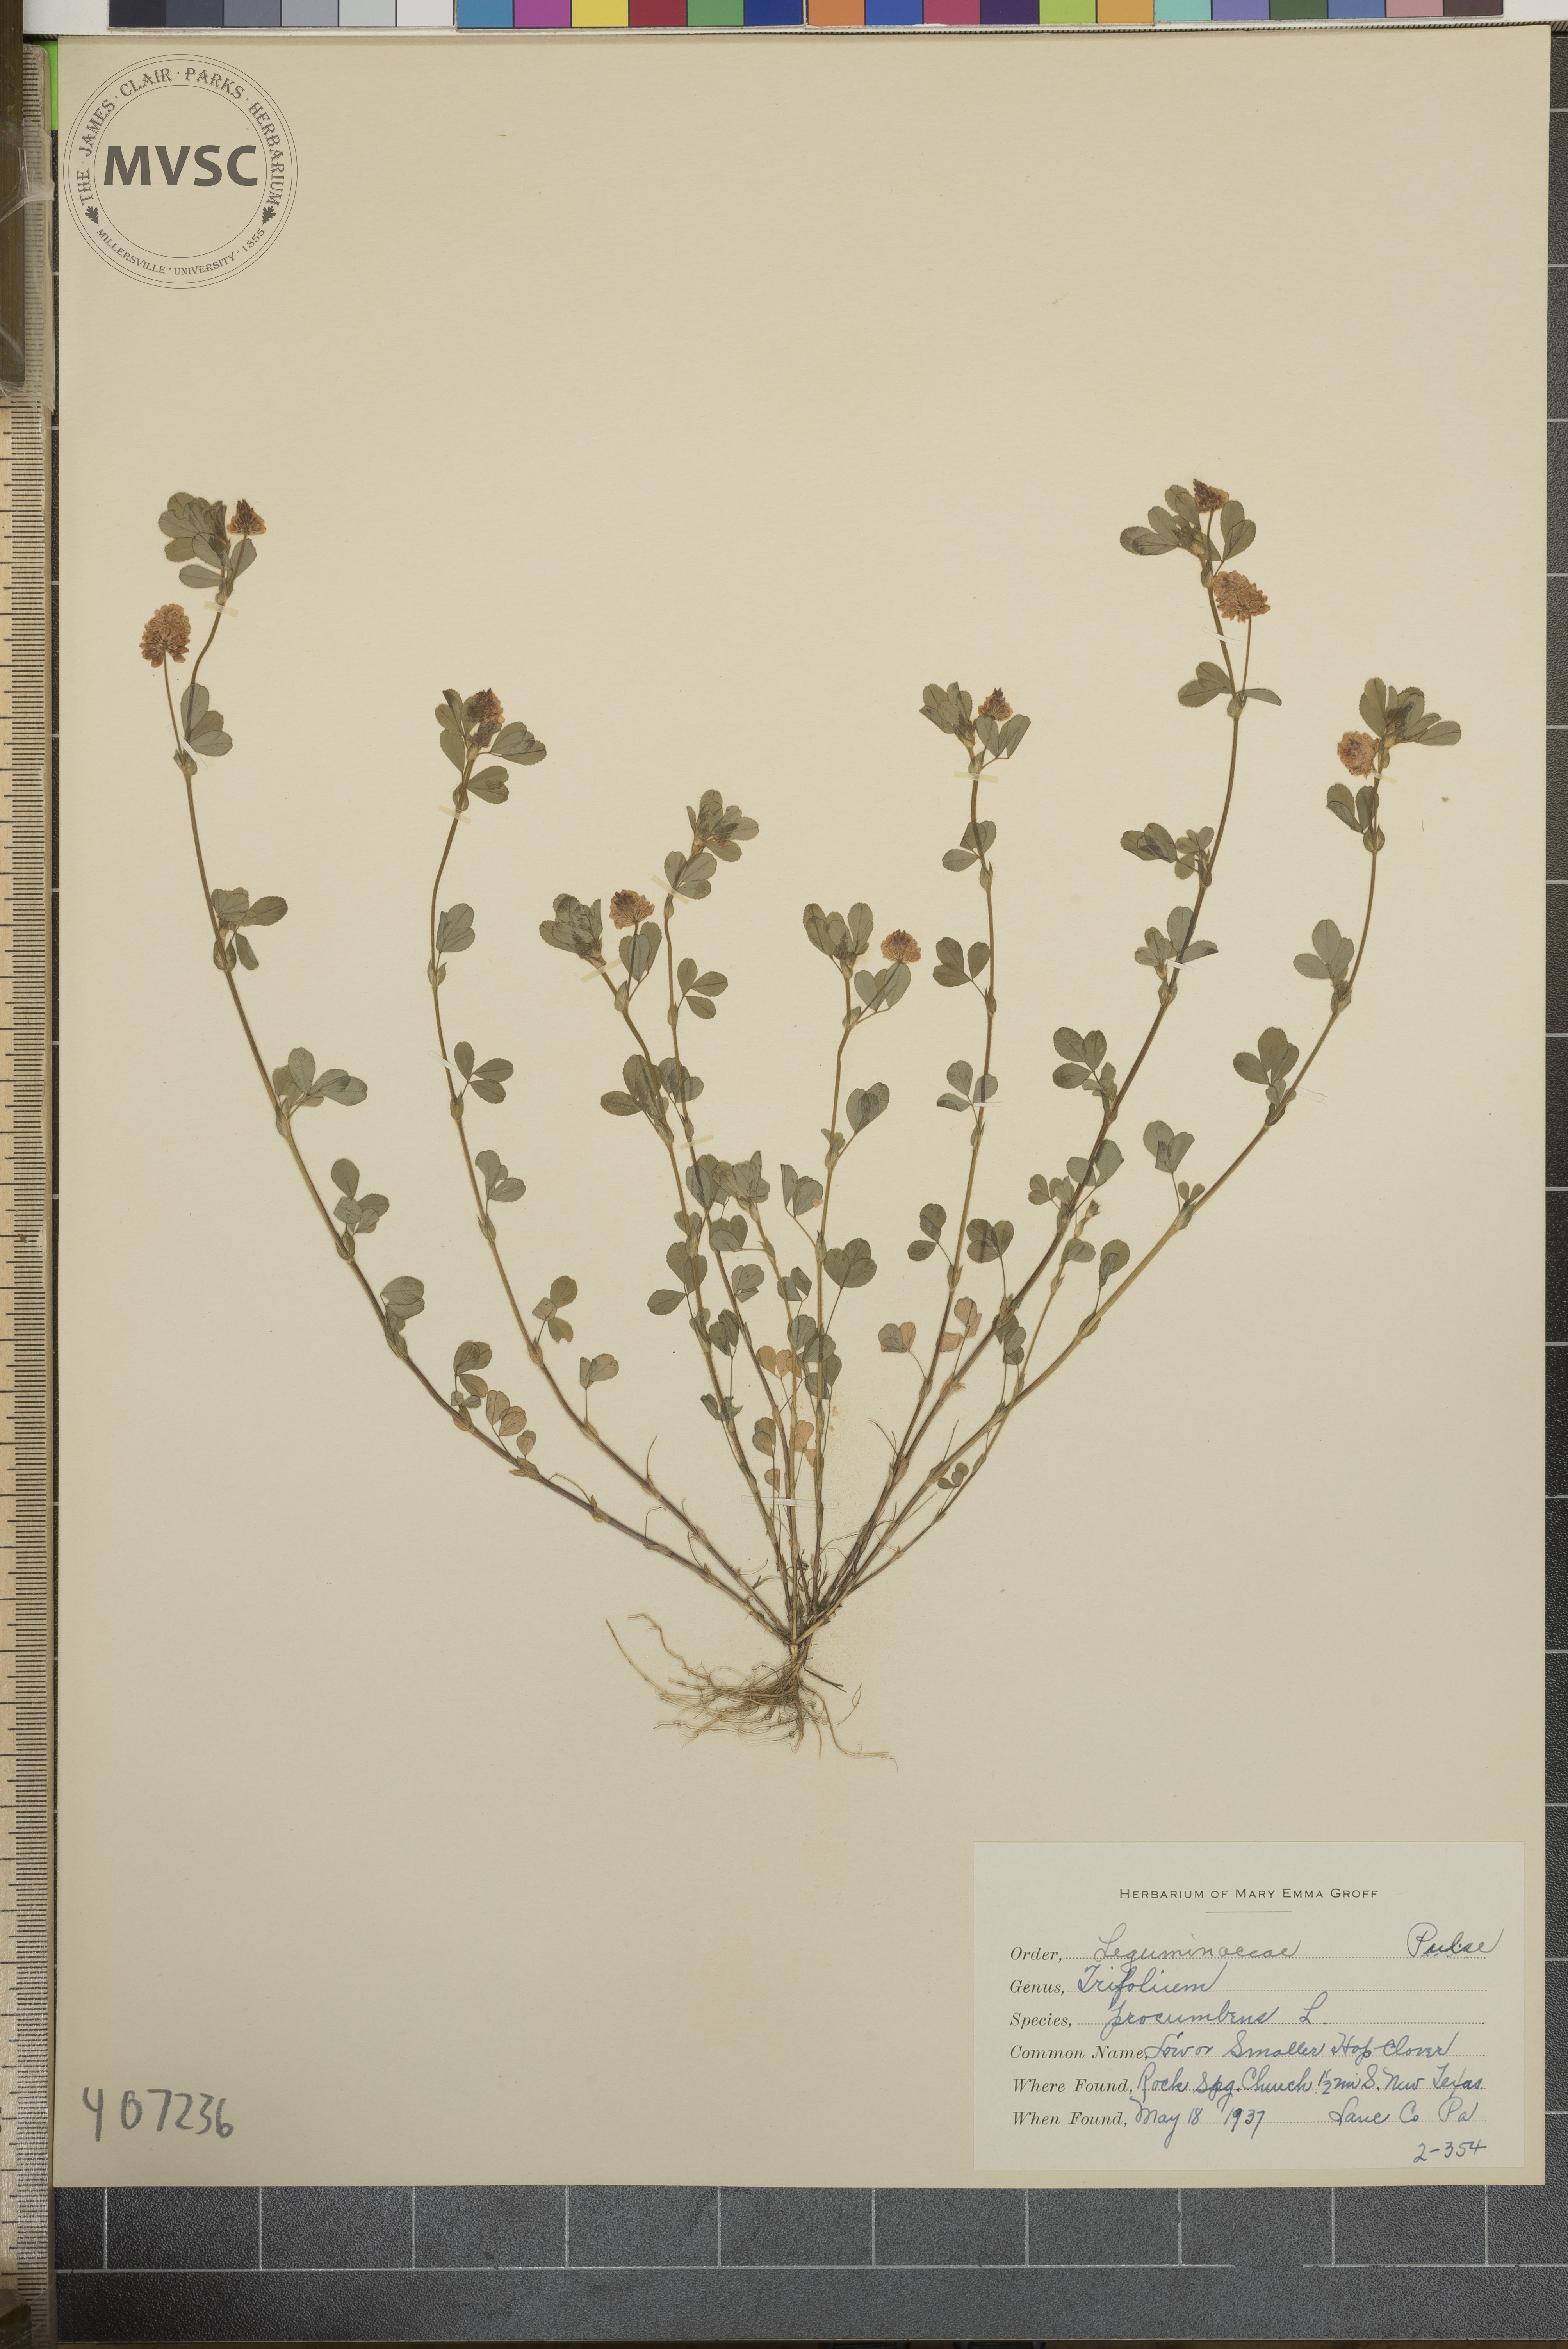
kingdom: Plantae
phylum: Tracheophyta
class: Magnoliopsida
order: Fabales
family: Fabaceae
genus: Trifolium
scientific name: Trifolium campestre
